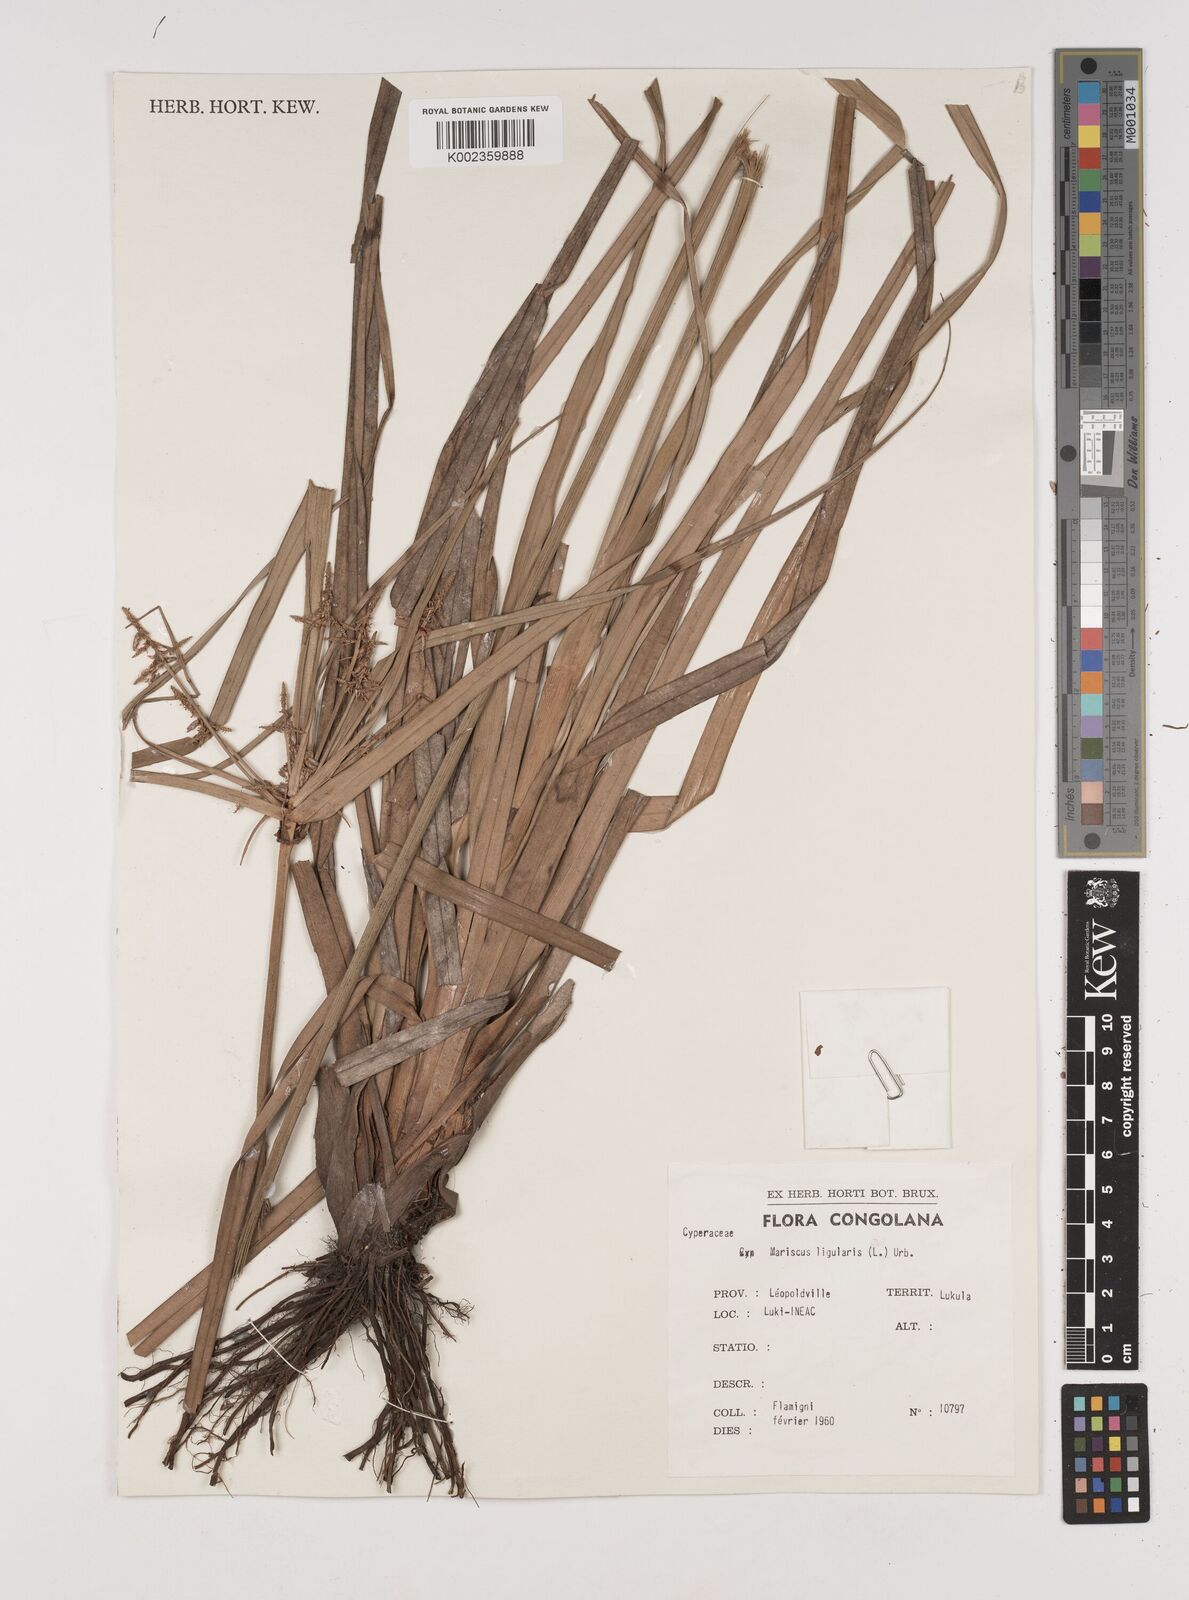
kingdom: Plantae
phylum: Tracheophyta
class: Liliopsida
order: Poales
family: Cyperaceae
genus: Cyperus
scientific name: Cyperus ligularis
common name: Swamp flat sedge
